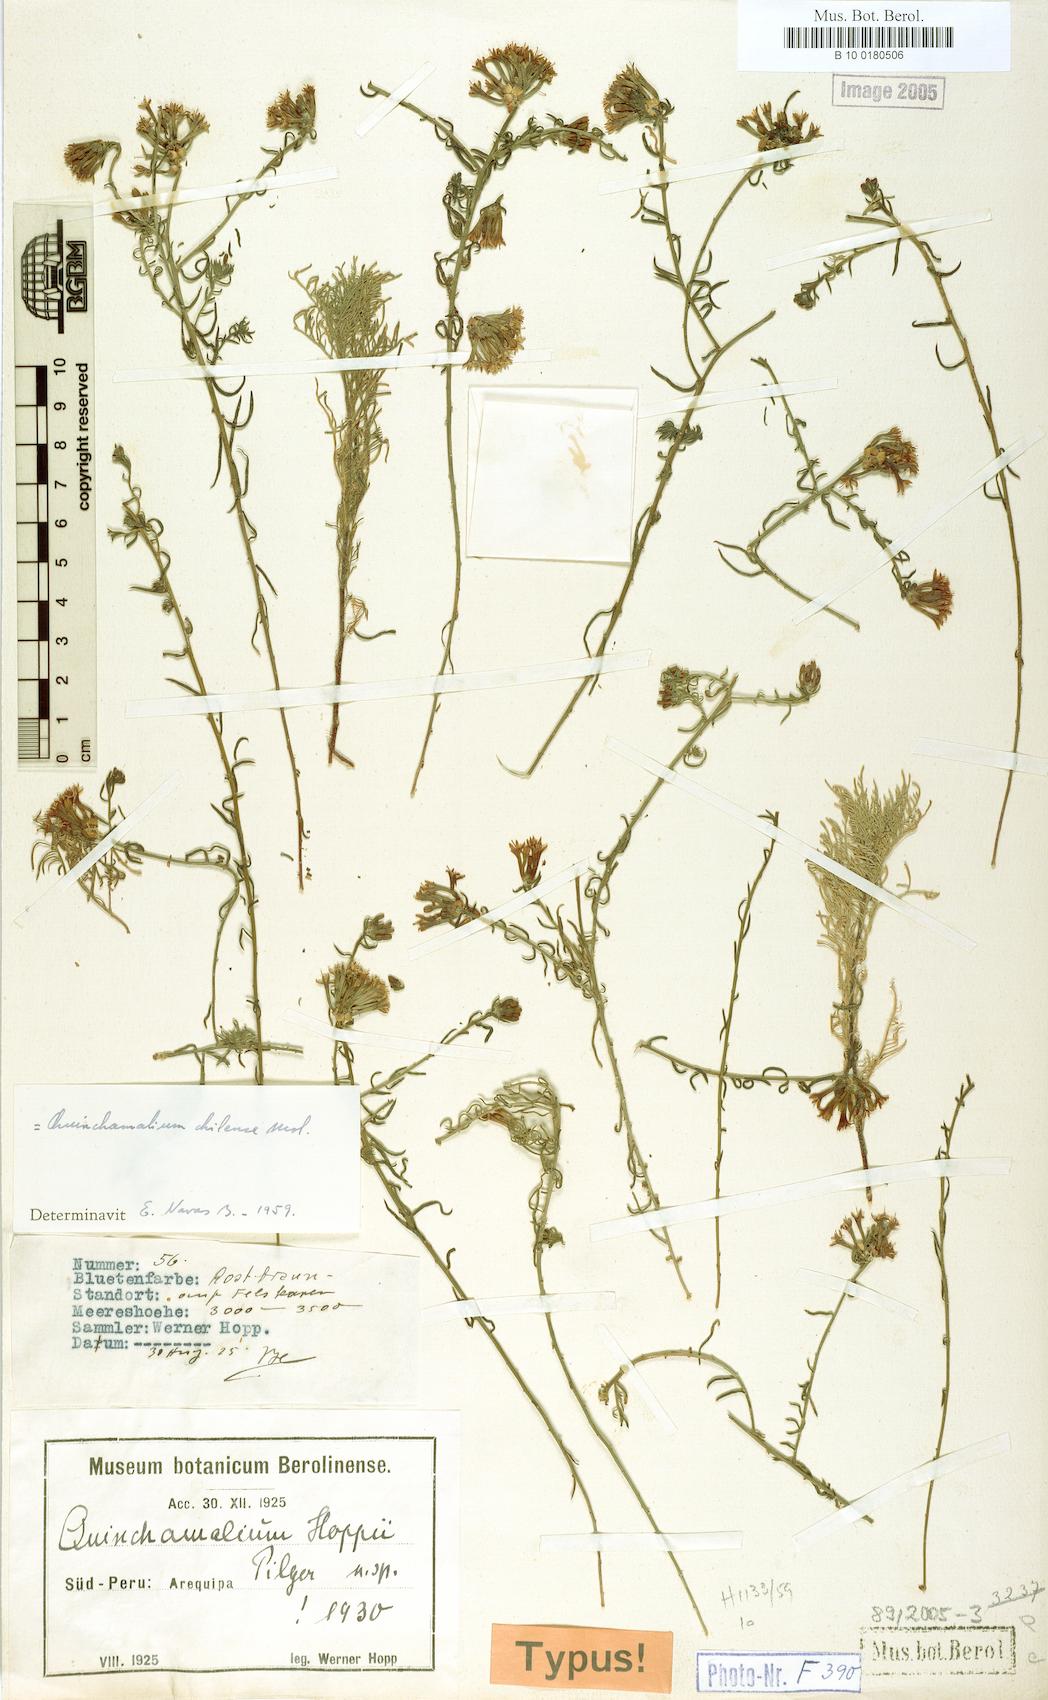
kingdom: Plantae
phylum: Tracheophyta
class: Magnoliopsida
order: Santalales
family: Schoepfiaceae
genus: Quinchamalium
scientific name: Quinchamalium chilense
